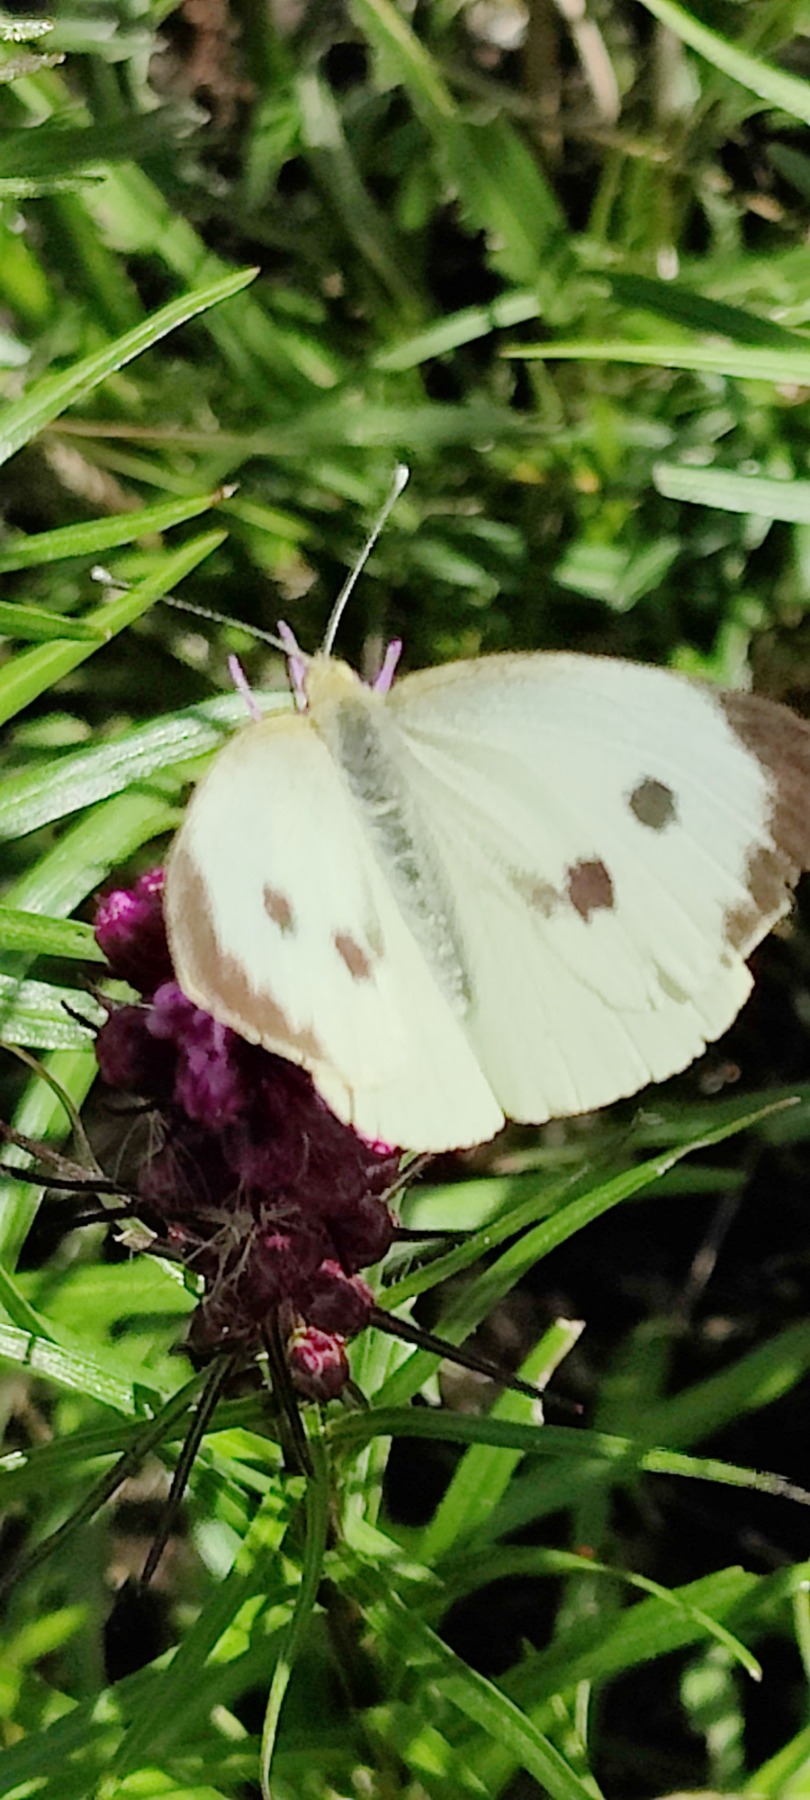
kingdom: Animalia
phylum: Arthropoda
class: Insecta
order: Lepidoptera
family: Pieridae
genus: Pieris
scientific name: Pieris brassicae
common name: Stor kålsommerfugl
